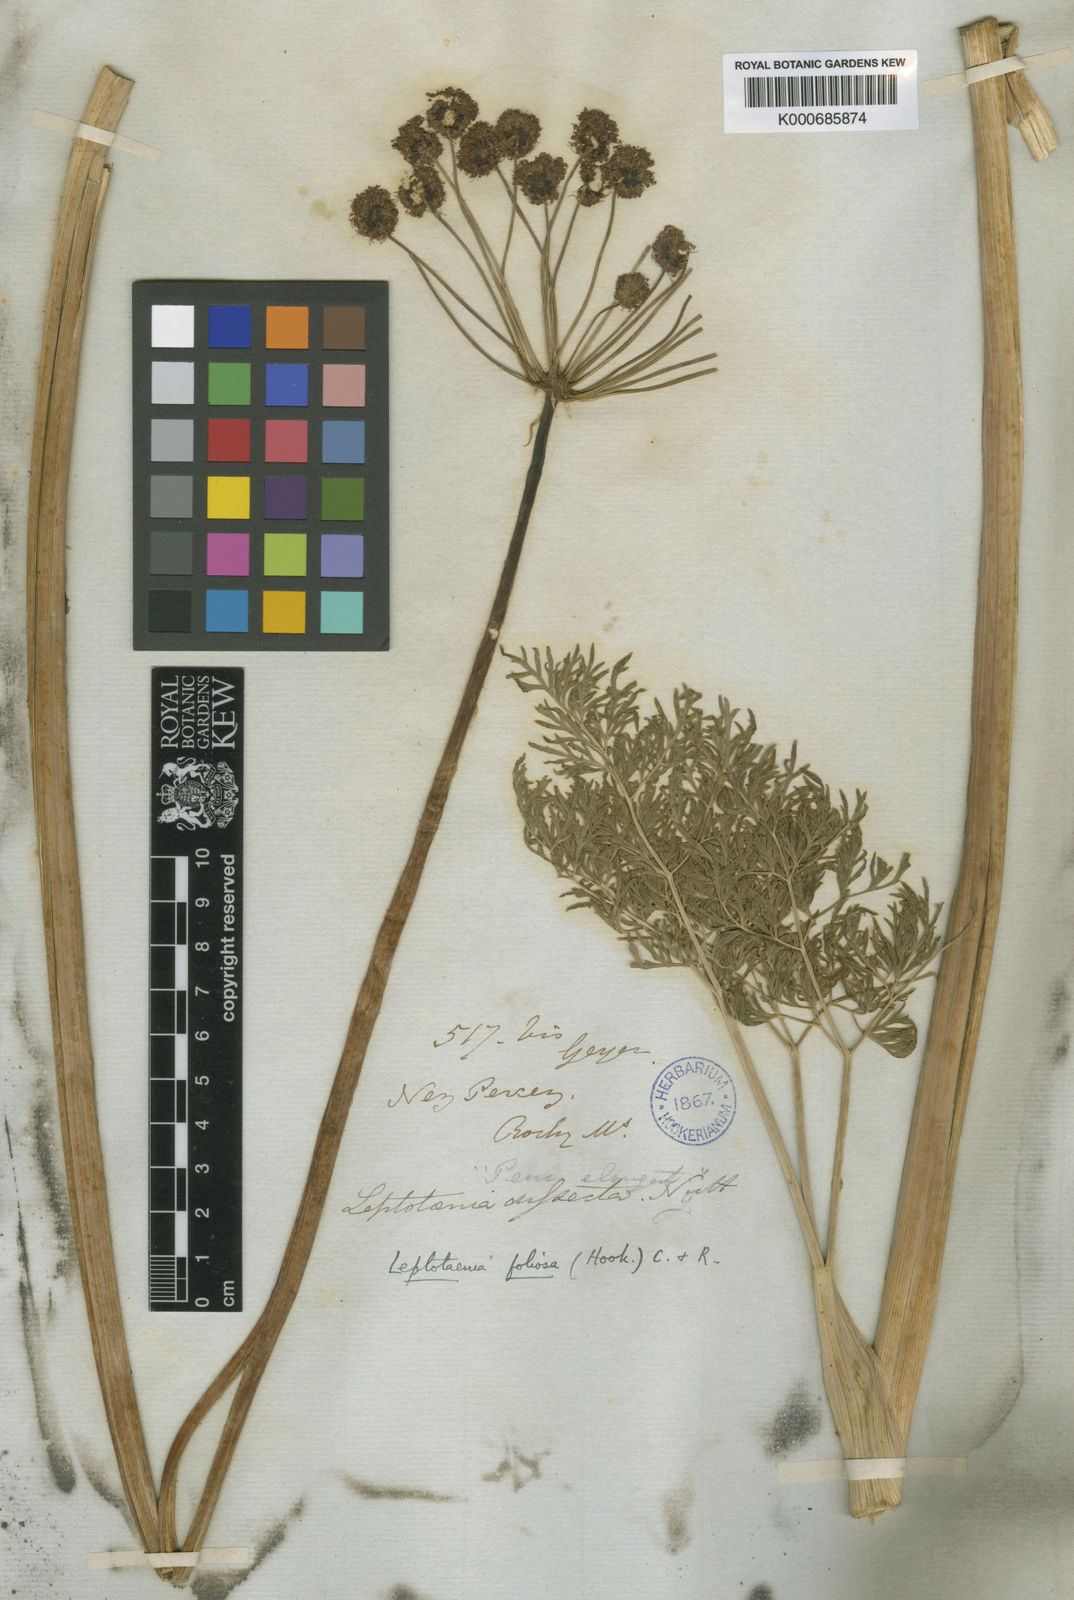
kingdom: Plantae
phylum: Tracheophyta
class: Magnoliopsida
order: Apiales
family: Apiaceae
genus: Lomatium
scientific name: Lomatium dissectum
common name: Lomatium
